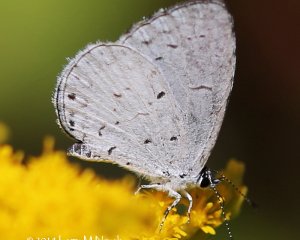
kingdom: Animalia
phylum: Arthropoda
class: Insecta
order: Lepidoptera
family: Lycaenidae
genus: Cyaniris
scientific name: Cyaniris neglecta
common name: Summer Azure
